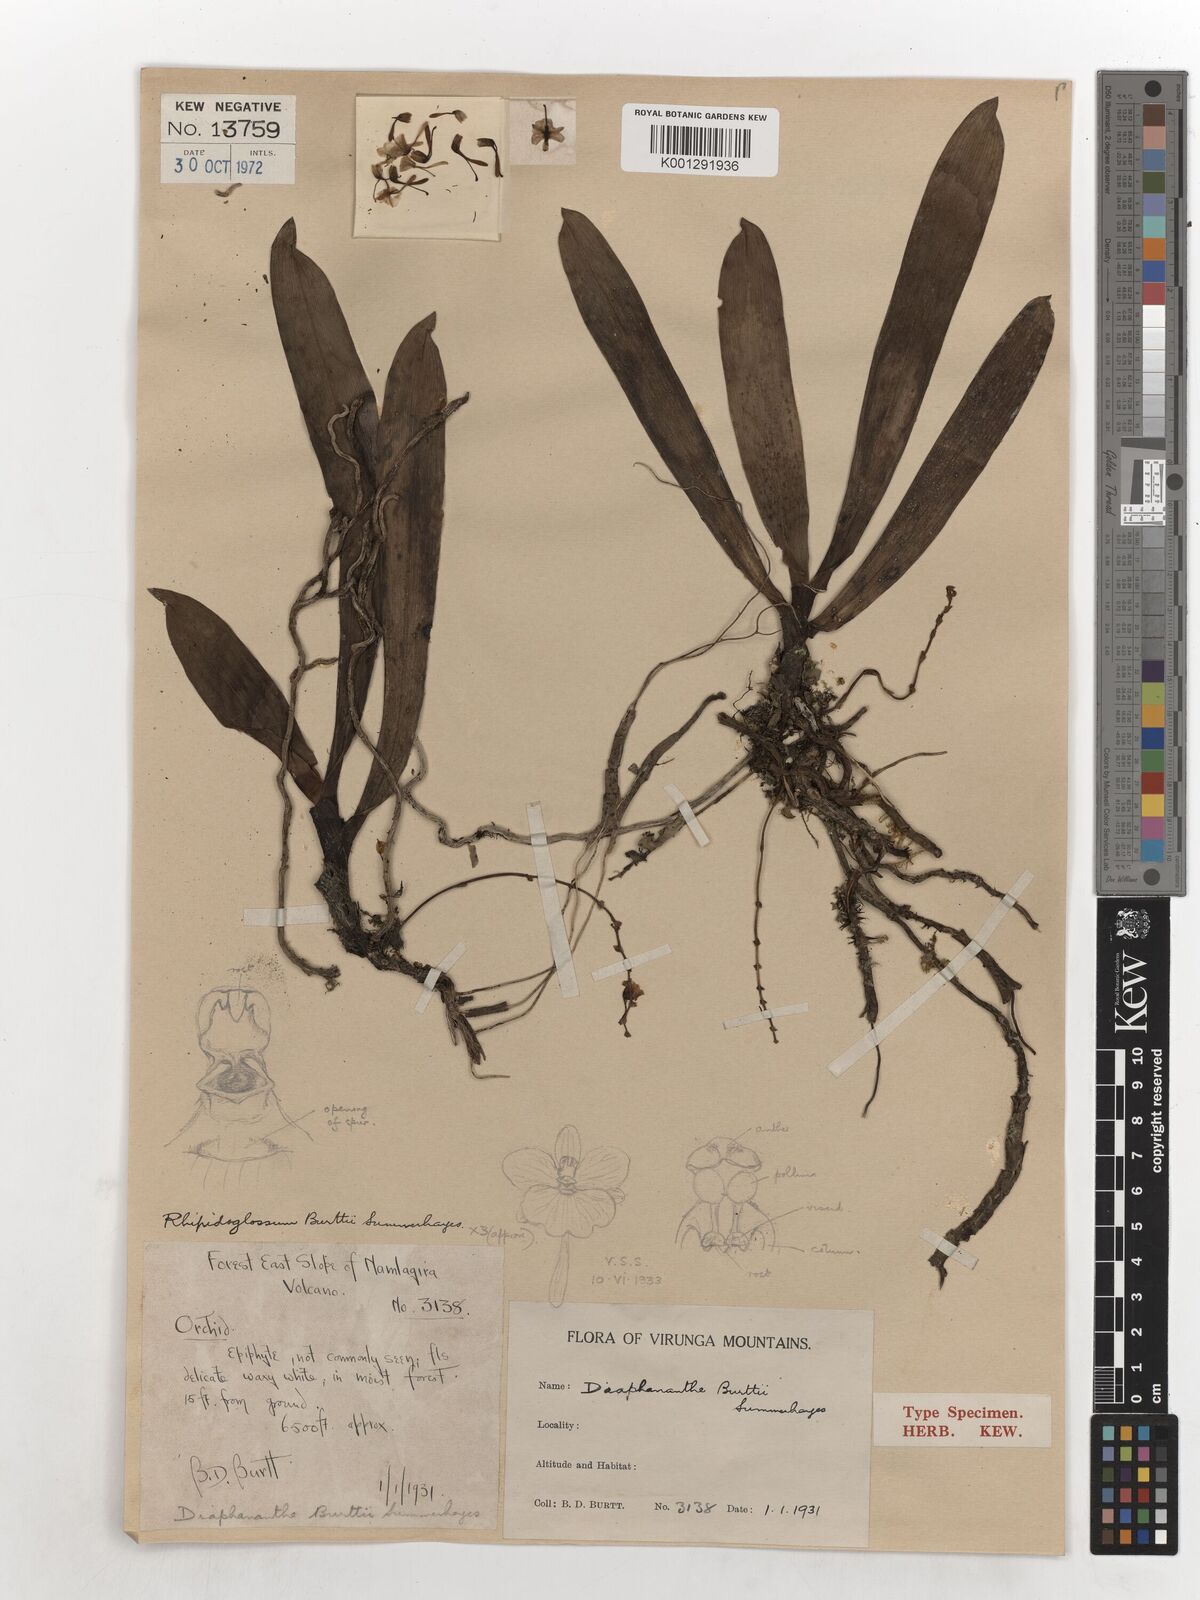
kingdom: Plantae
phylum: Tracheophyta
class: Liliopsida
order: Asparagales
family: Orchidaceae
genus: Rhipidoglossum
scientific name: Rhipidoglossum burttii
